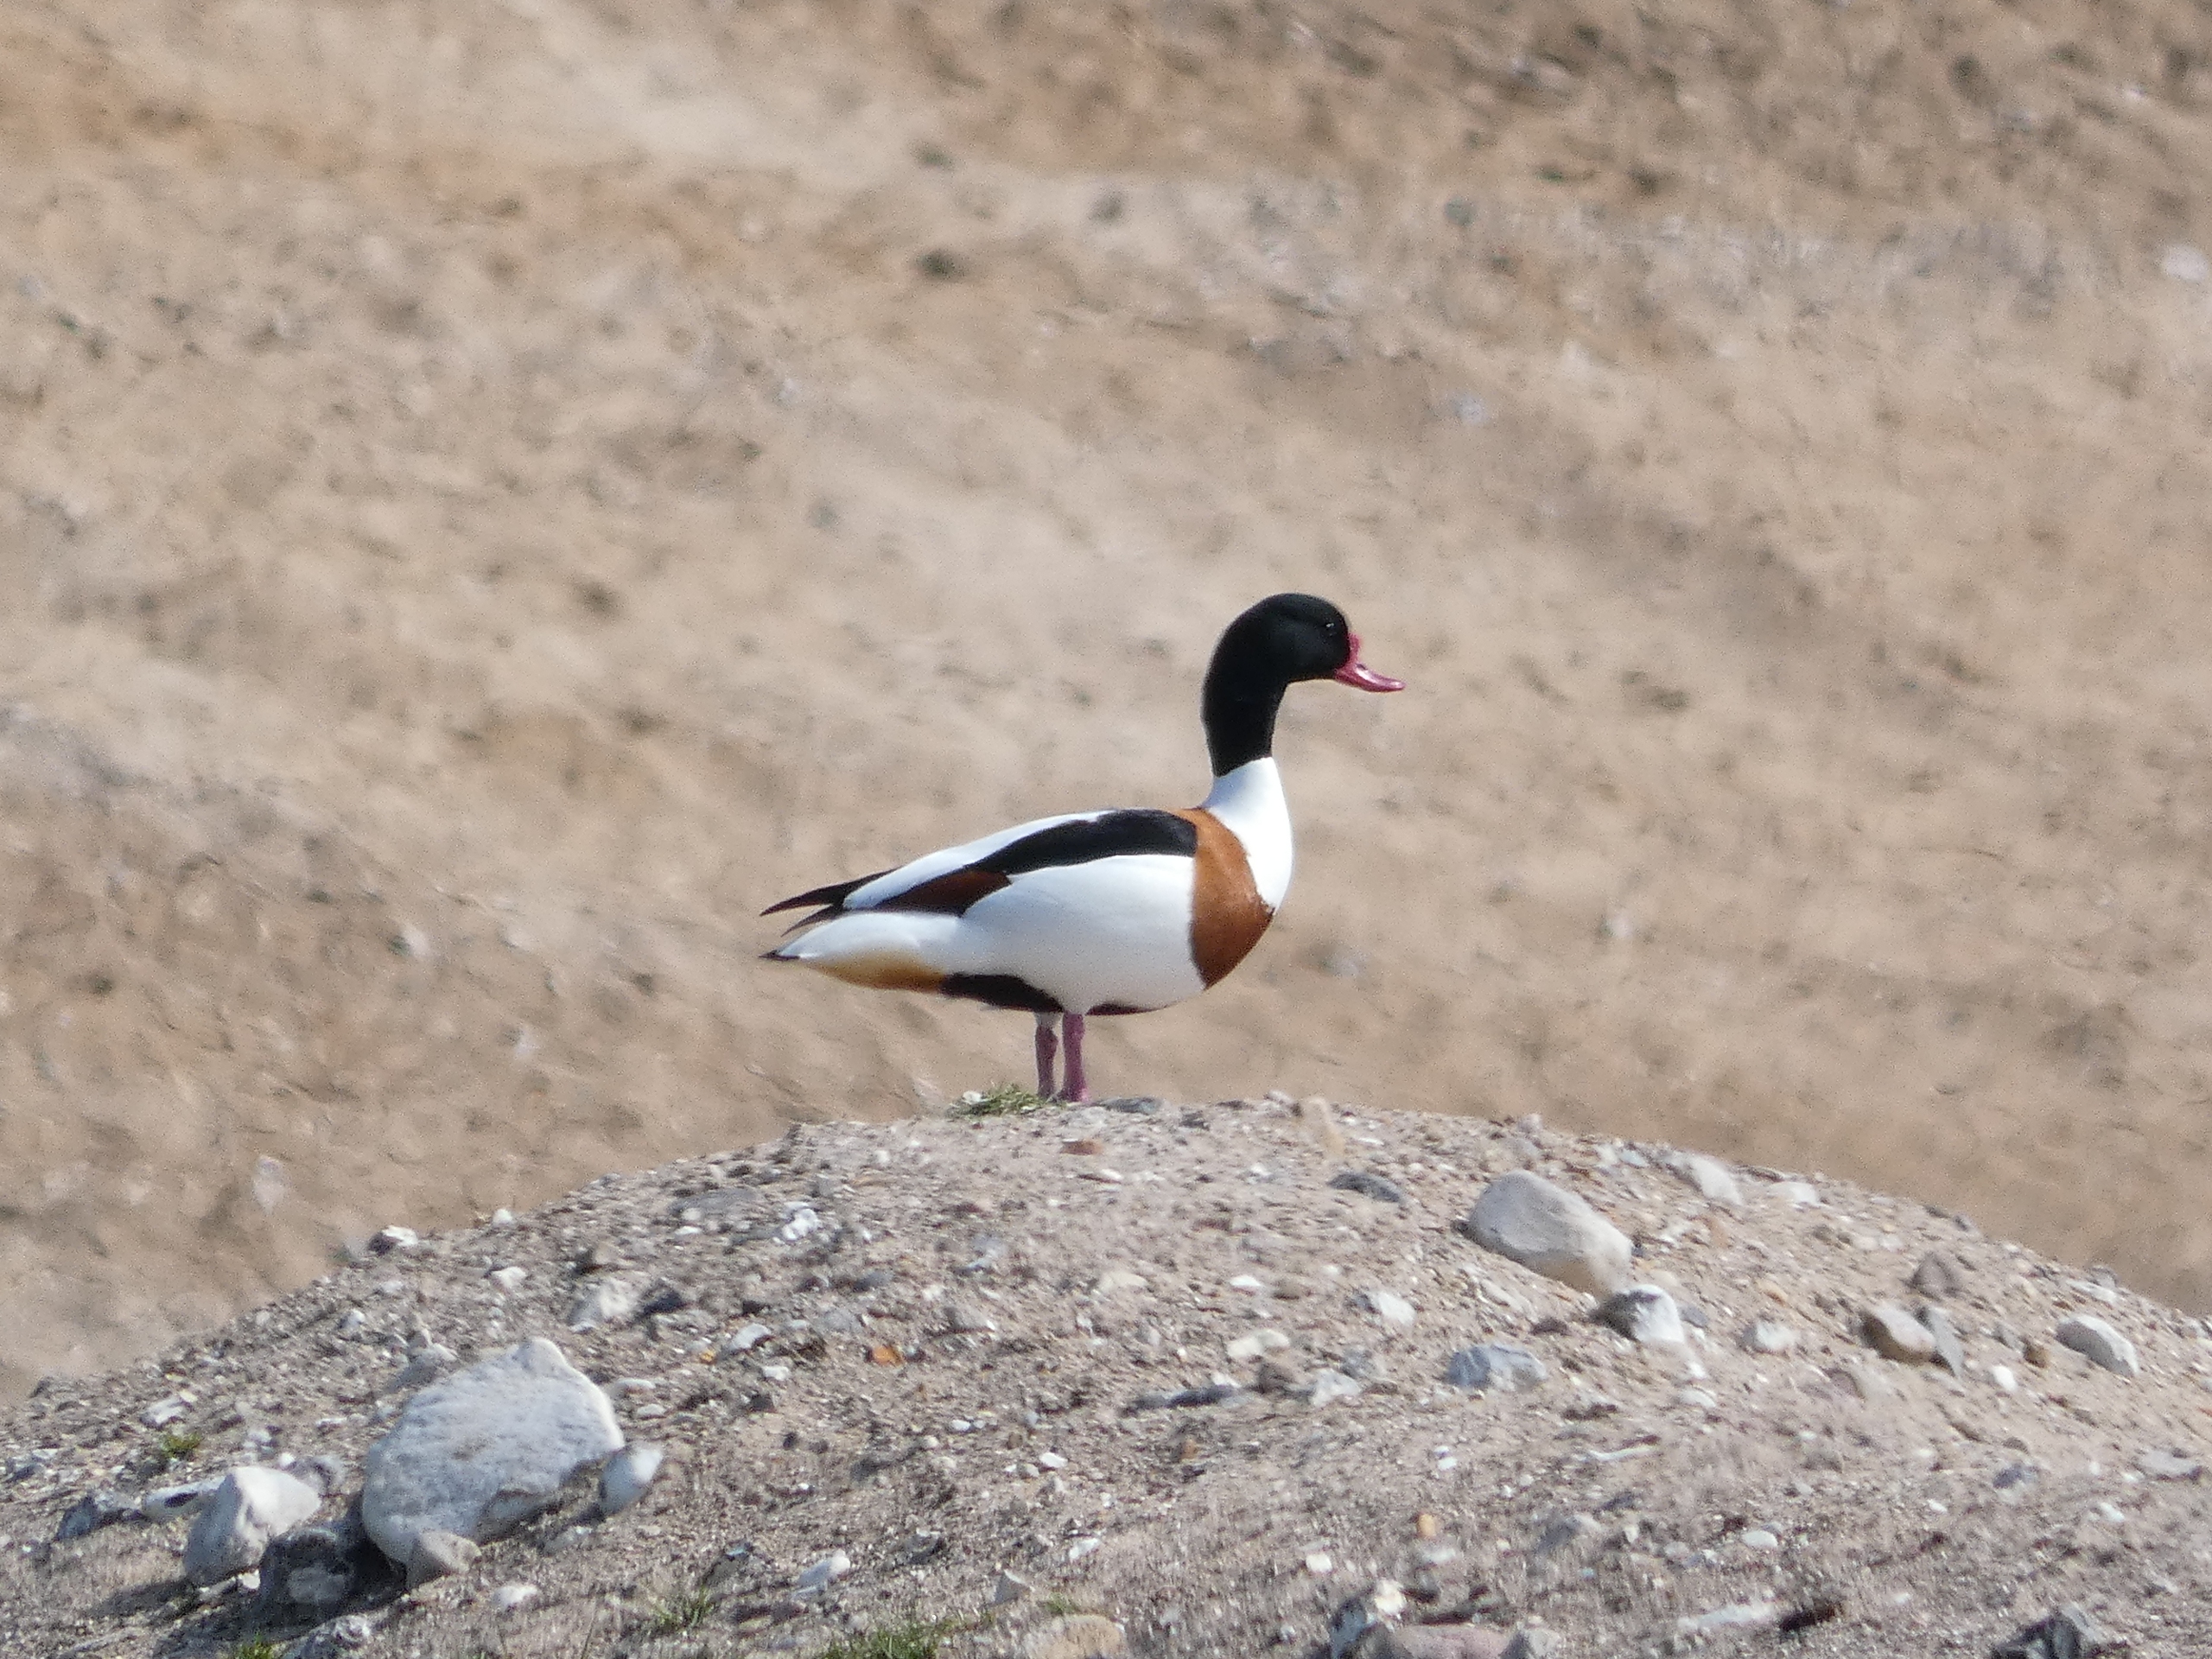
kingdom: Animalia
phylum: Chordata
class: Aves
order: Anseriformes
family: Anatidae
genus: Tadorna
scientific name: Tadorna tadorna
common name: Gravand
